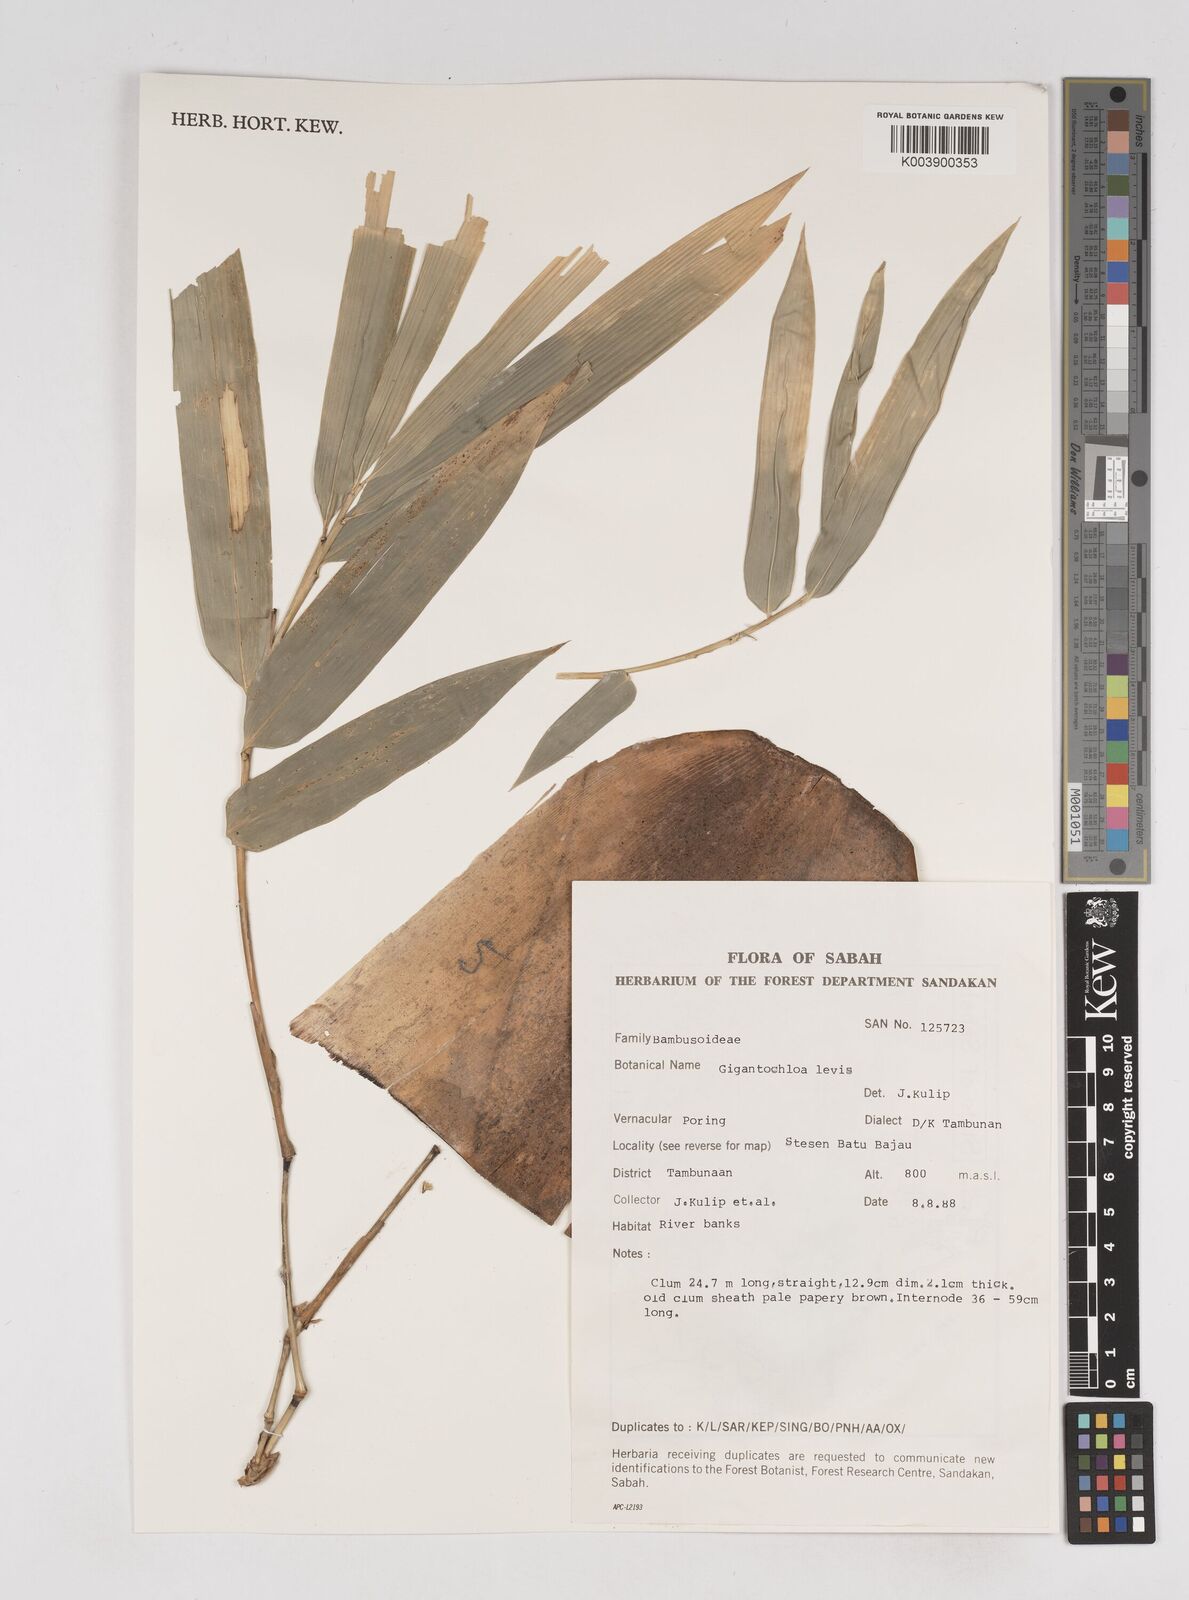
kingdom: Plantae
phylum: Tracheophyta
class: Liliopsida
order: Poales
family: Poaceae
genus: Gigantochloa
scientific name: Gigantochloa levis
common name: Smooth-shoot gigantochloa
